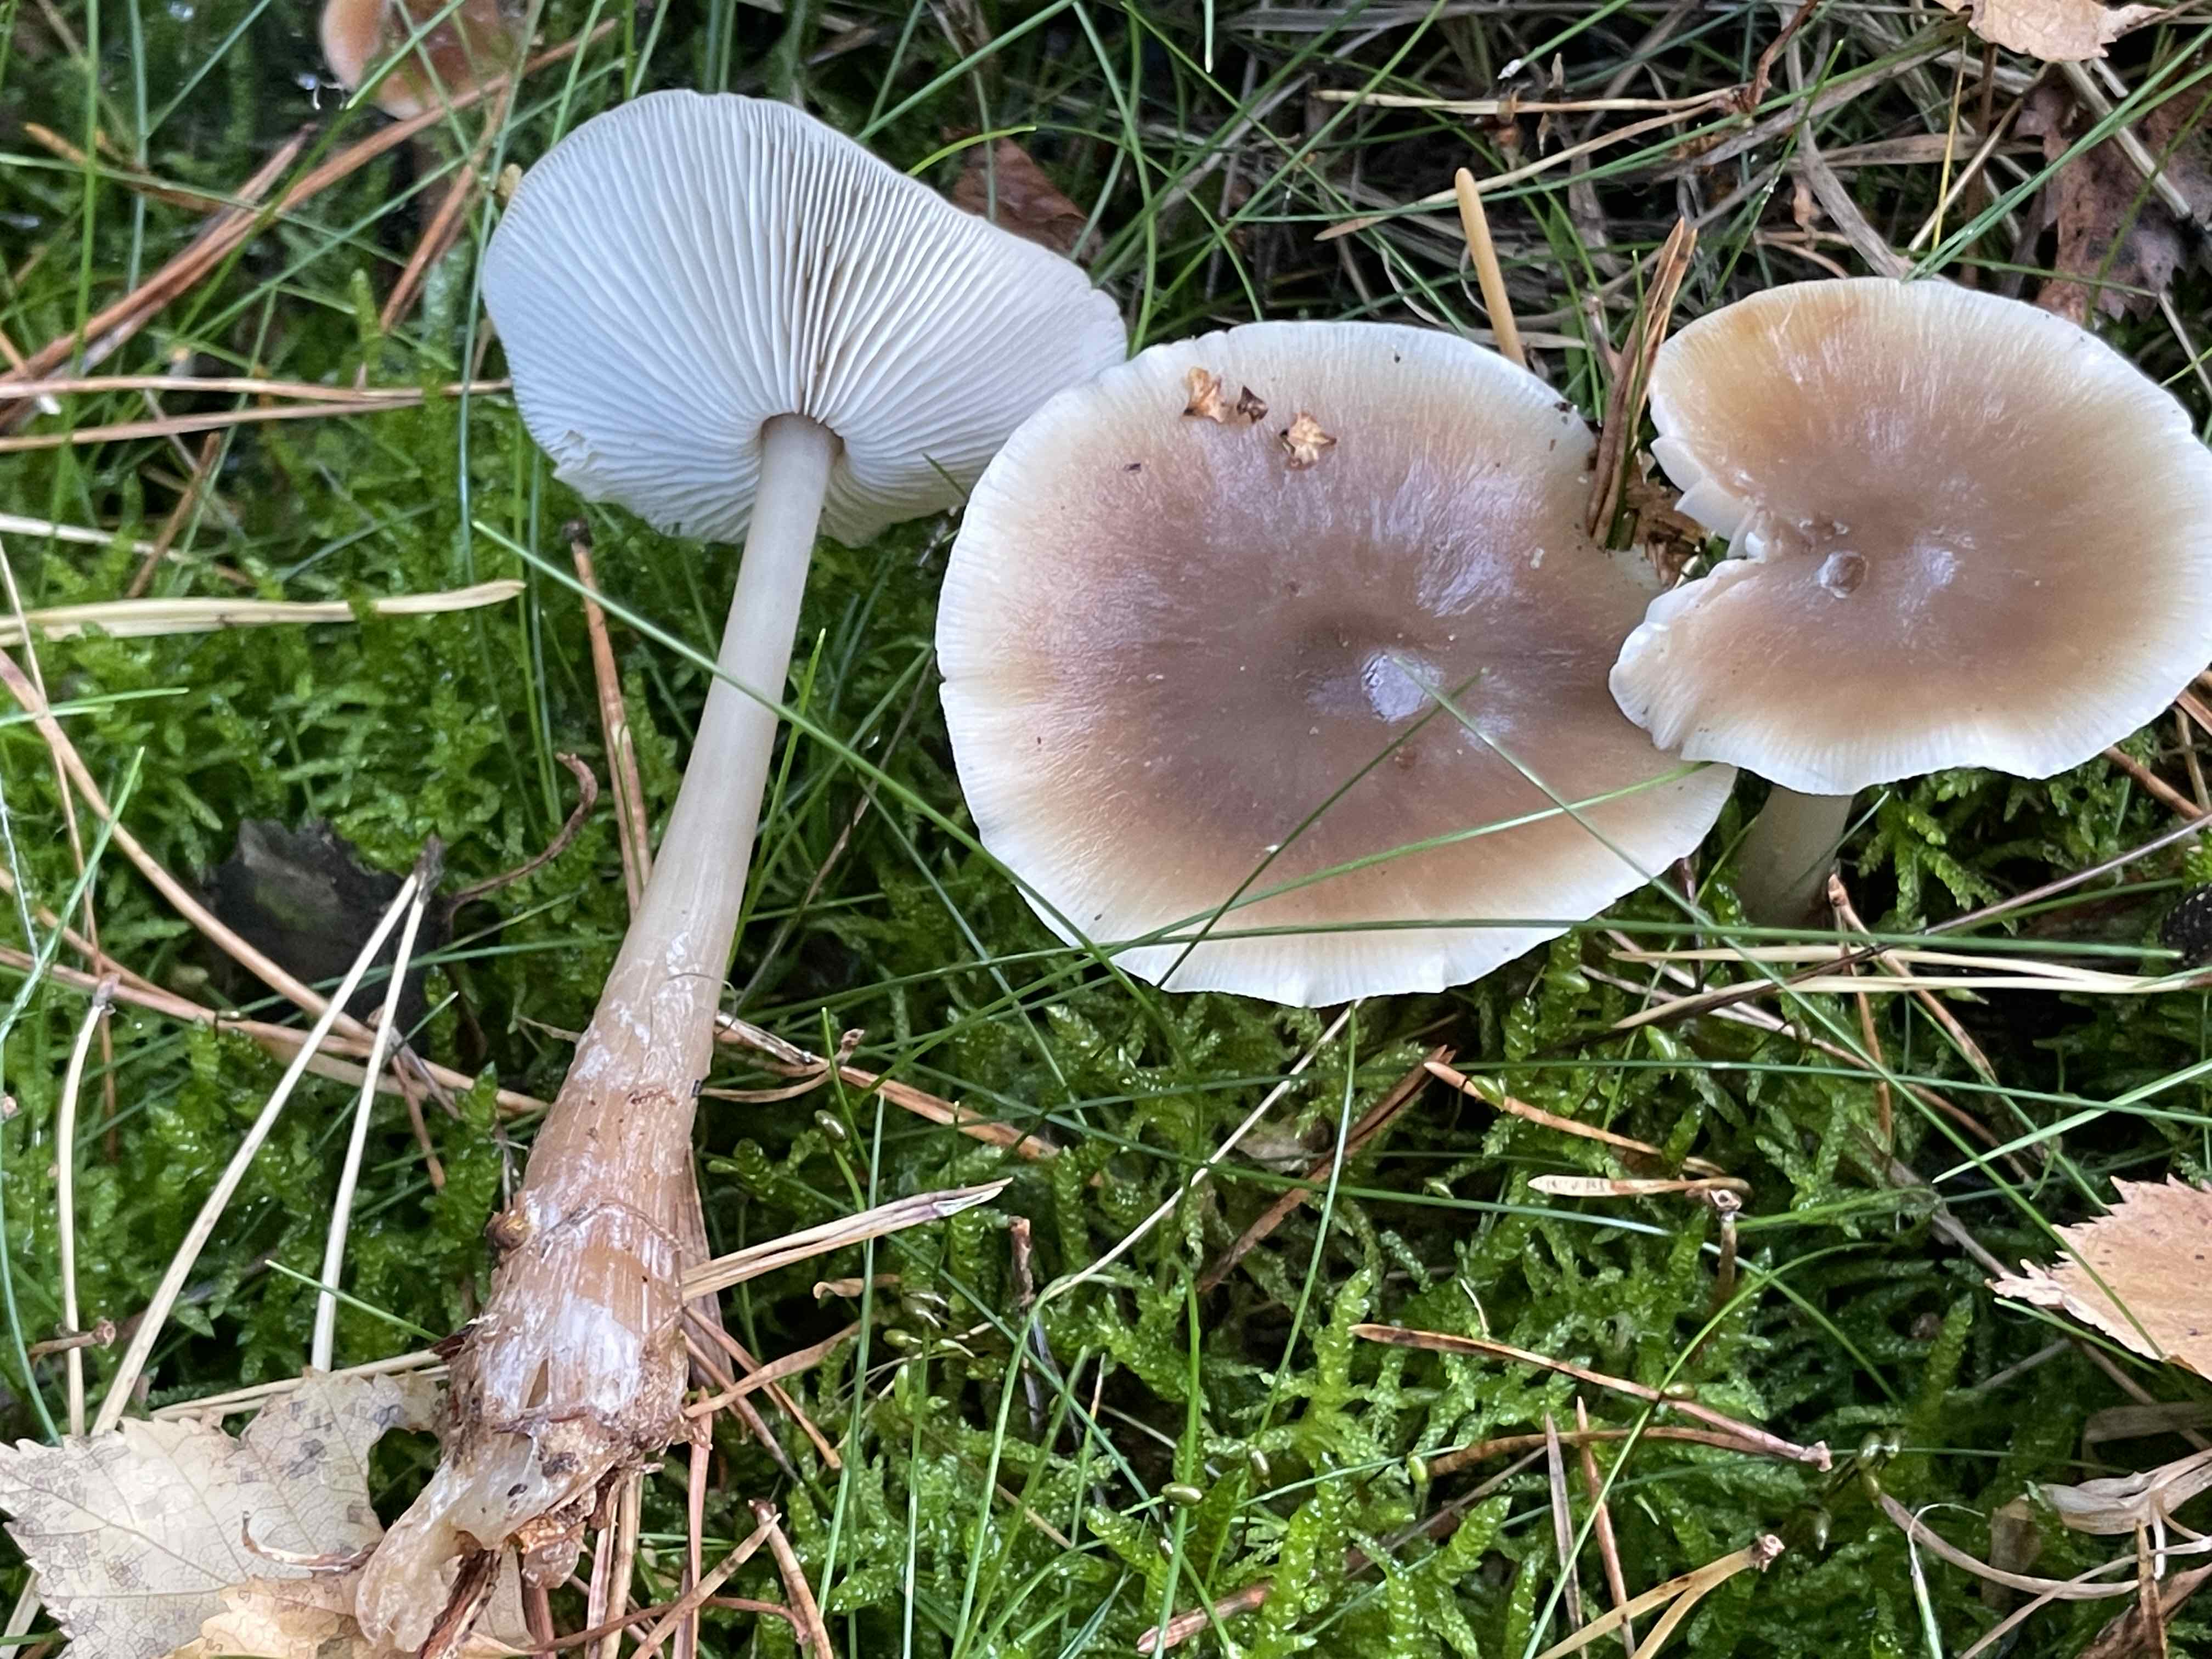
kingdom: Fungi
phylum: Basidiomycota
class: Agaricomycetes
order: Agaricales
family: Omphalotaceae
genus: Rhodocollybia
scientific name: Rhodocollybia asema
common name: horngrå fladhat
